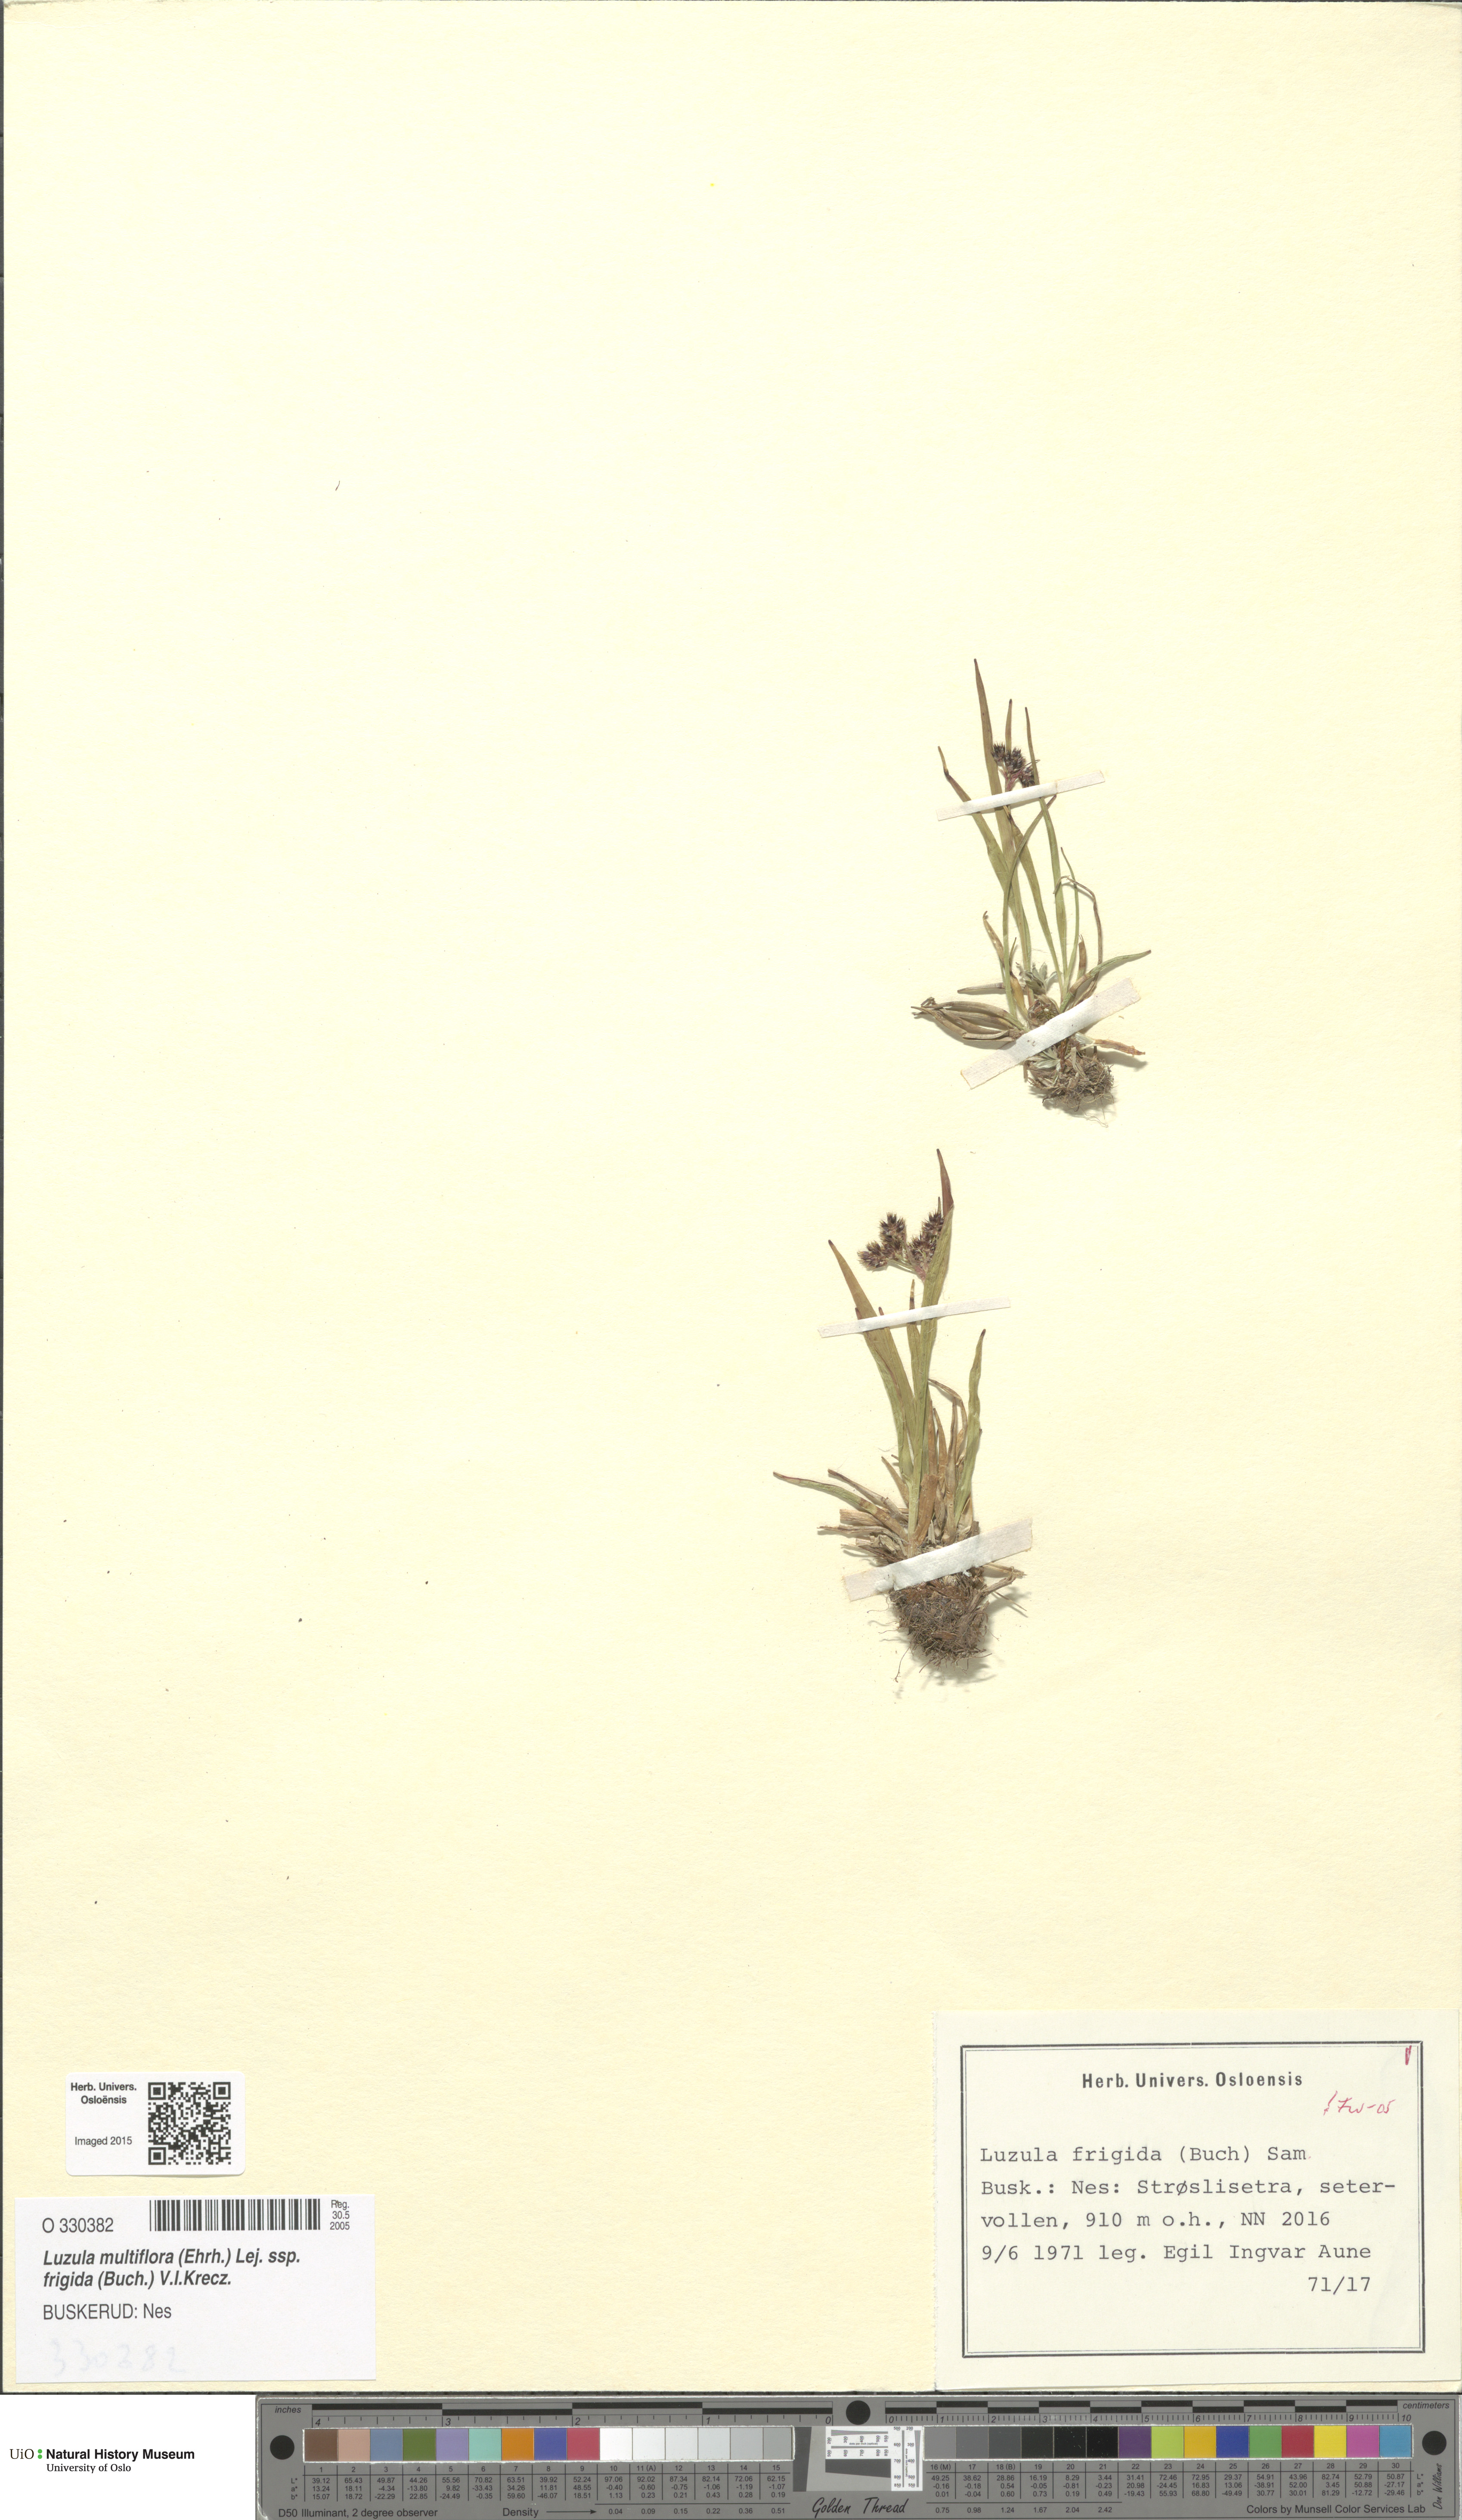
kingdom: Plantae
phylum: Tracheophyta
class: Liliopsida
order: Poales
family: Juncaceae
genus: Luzula
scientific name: Luzula multiflora
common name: Heath wood-rush
